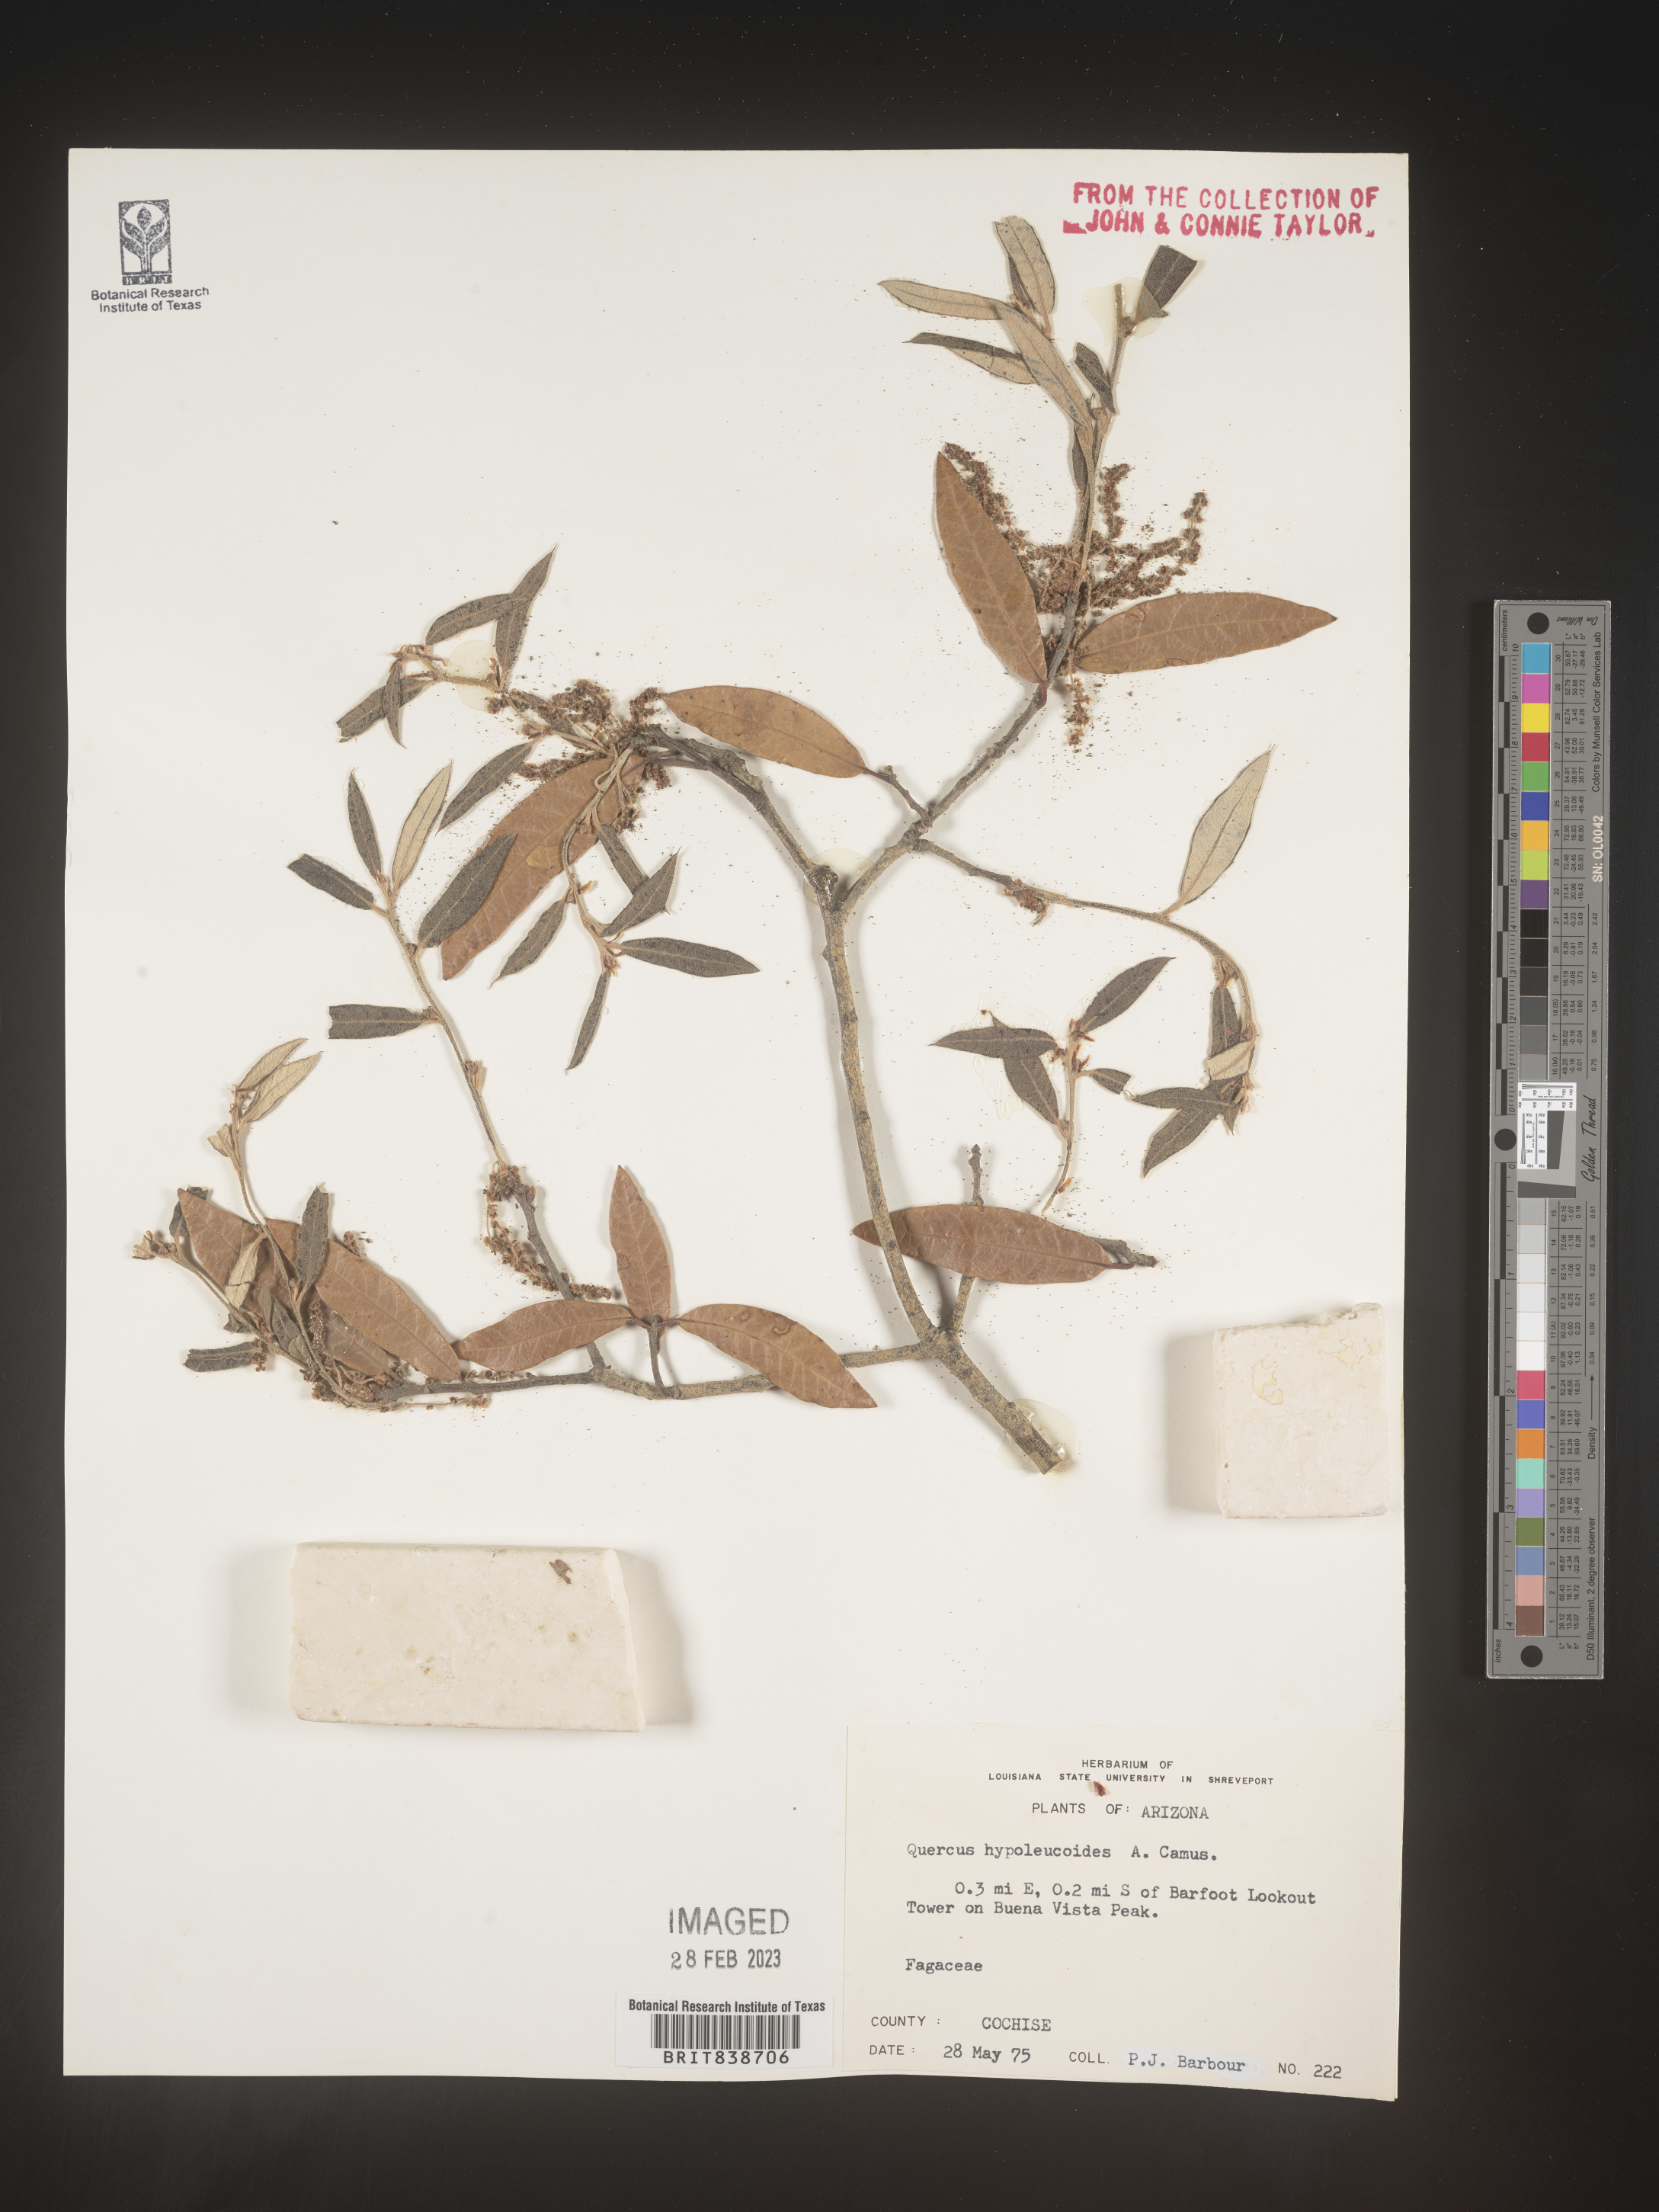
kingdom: Plantae
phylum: Tracheophyta
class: Magnoliopsida
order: Fagales
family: Fagaceae
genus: Quercus
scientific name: Quercus
